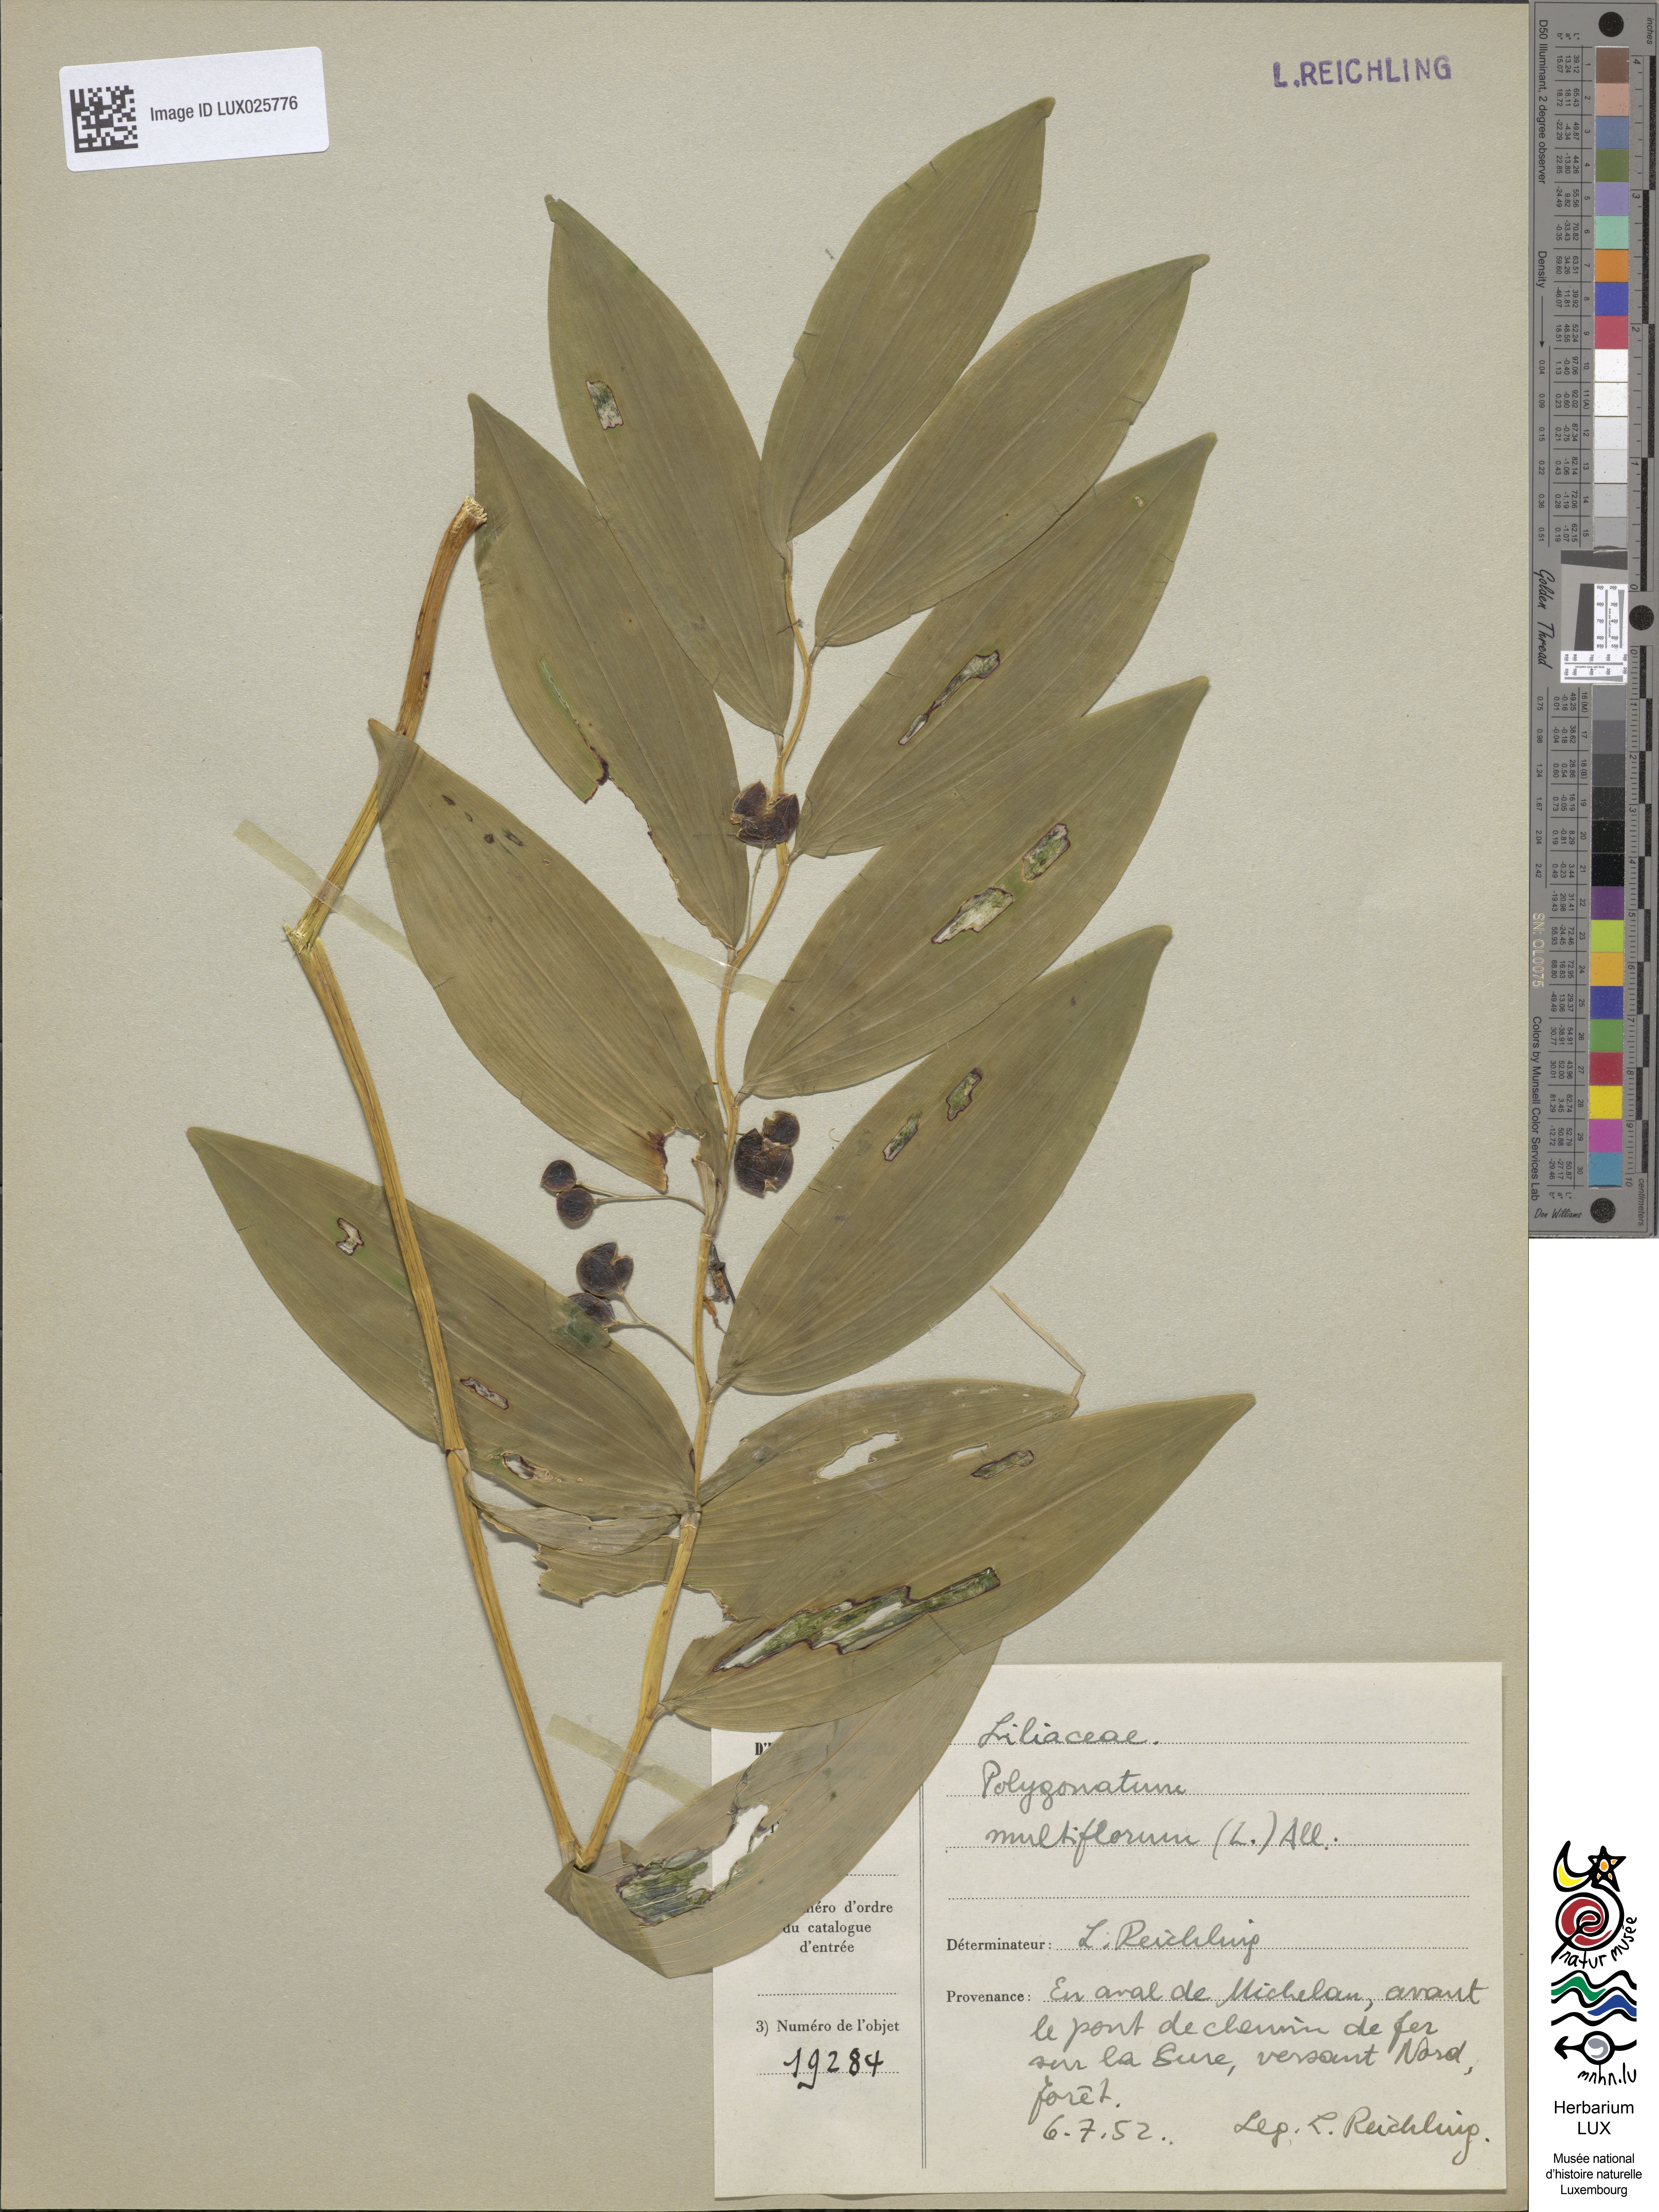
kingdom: Plantae
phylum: Tracheophyta
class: Liliopsida
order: Asparagales
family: Asparagaceae
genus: Polygonatum
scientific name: Polygonatum multiflorum
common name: Solomon's-seal
